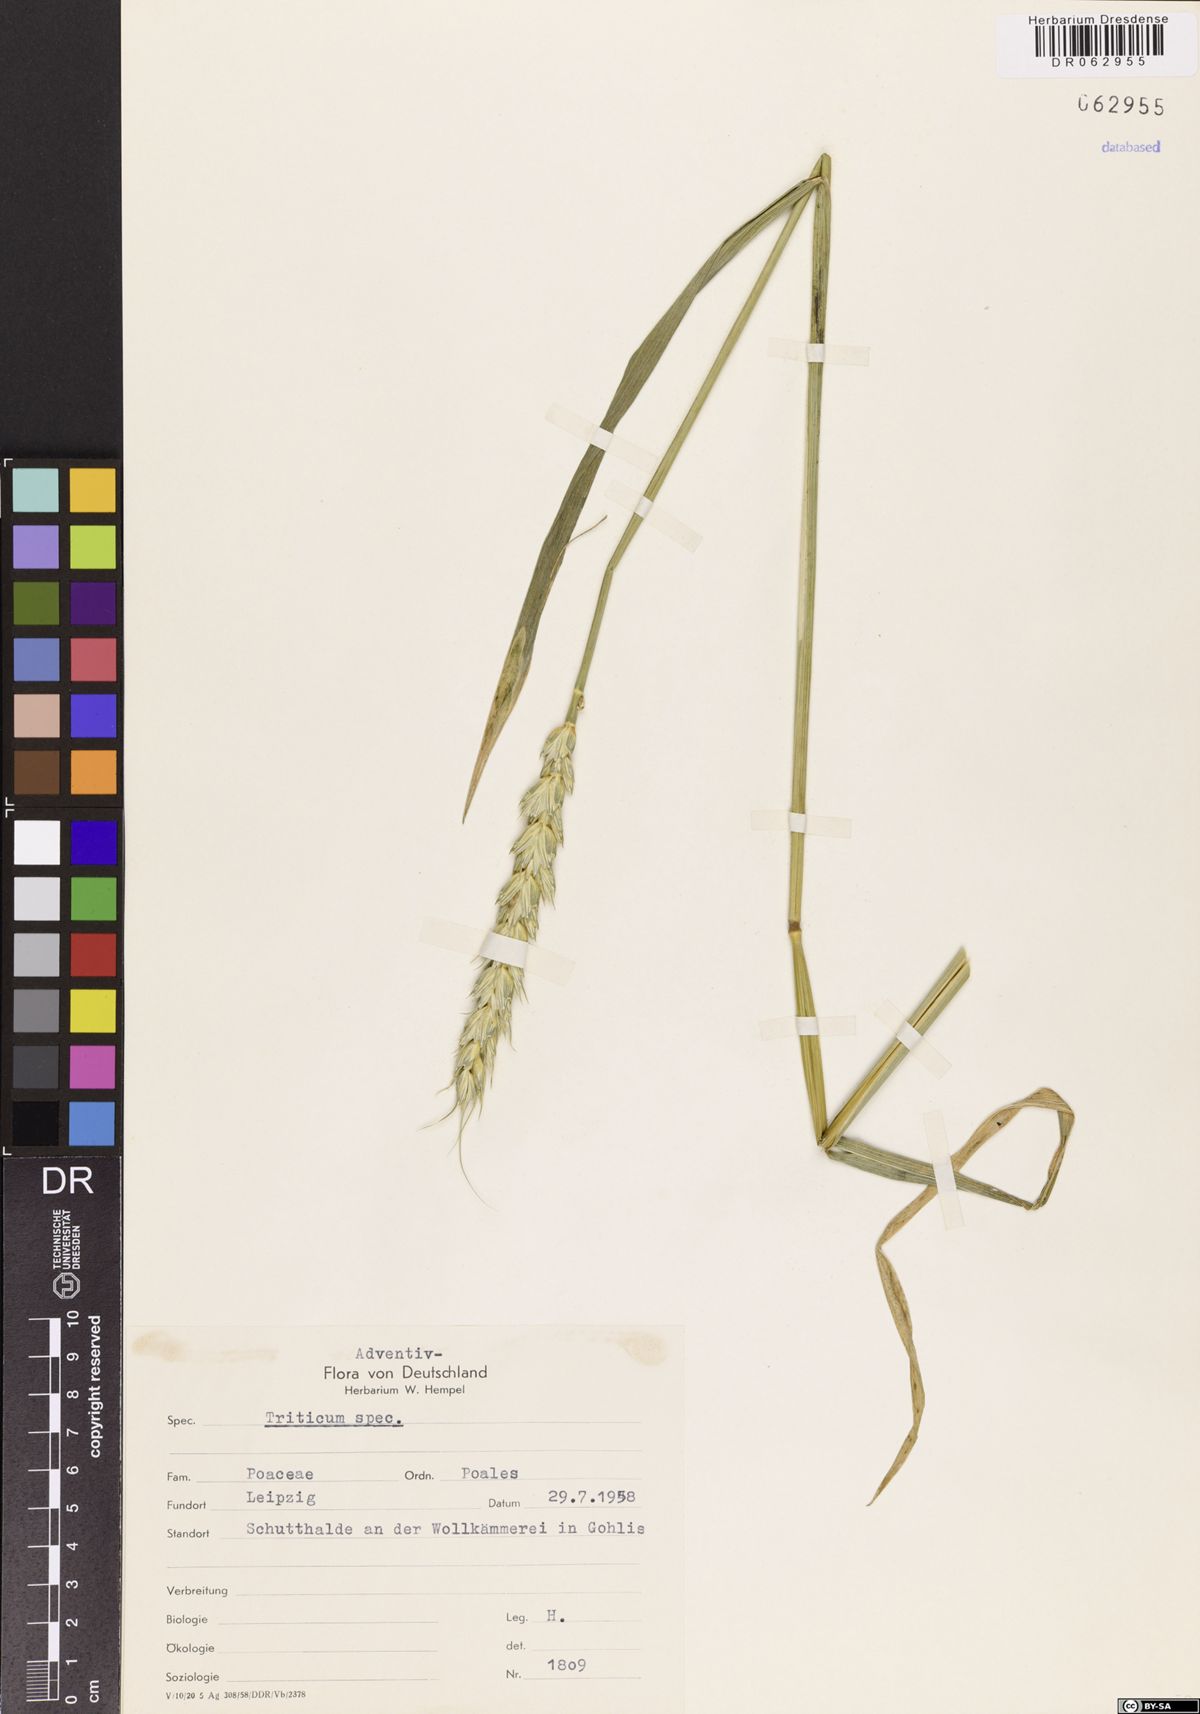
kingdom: Plantae
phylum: Tracheophyta
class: Liliopsida
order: Poales
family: Poaceae
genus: Triticum
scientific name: Triticum
